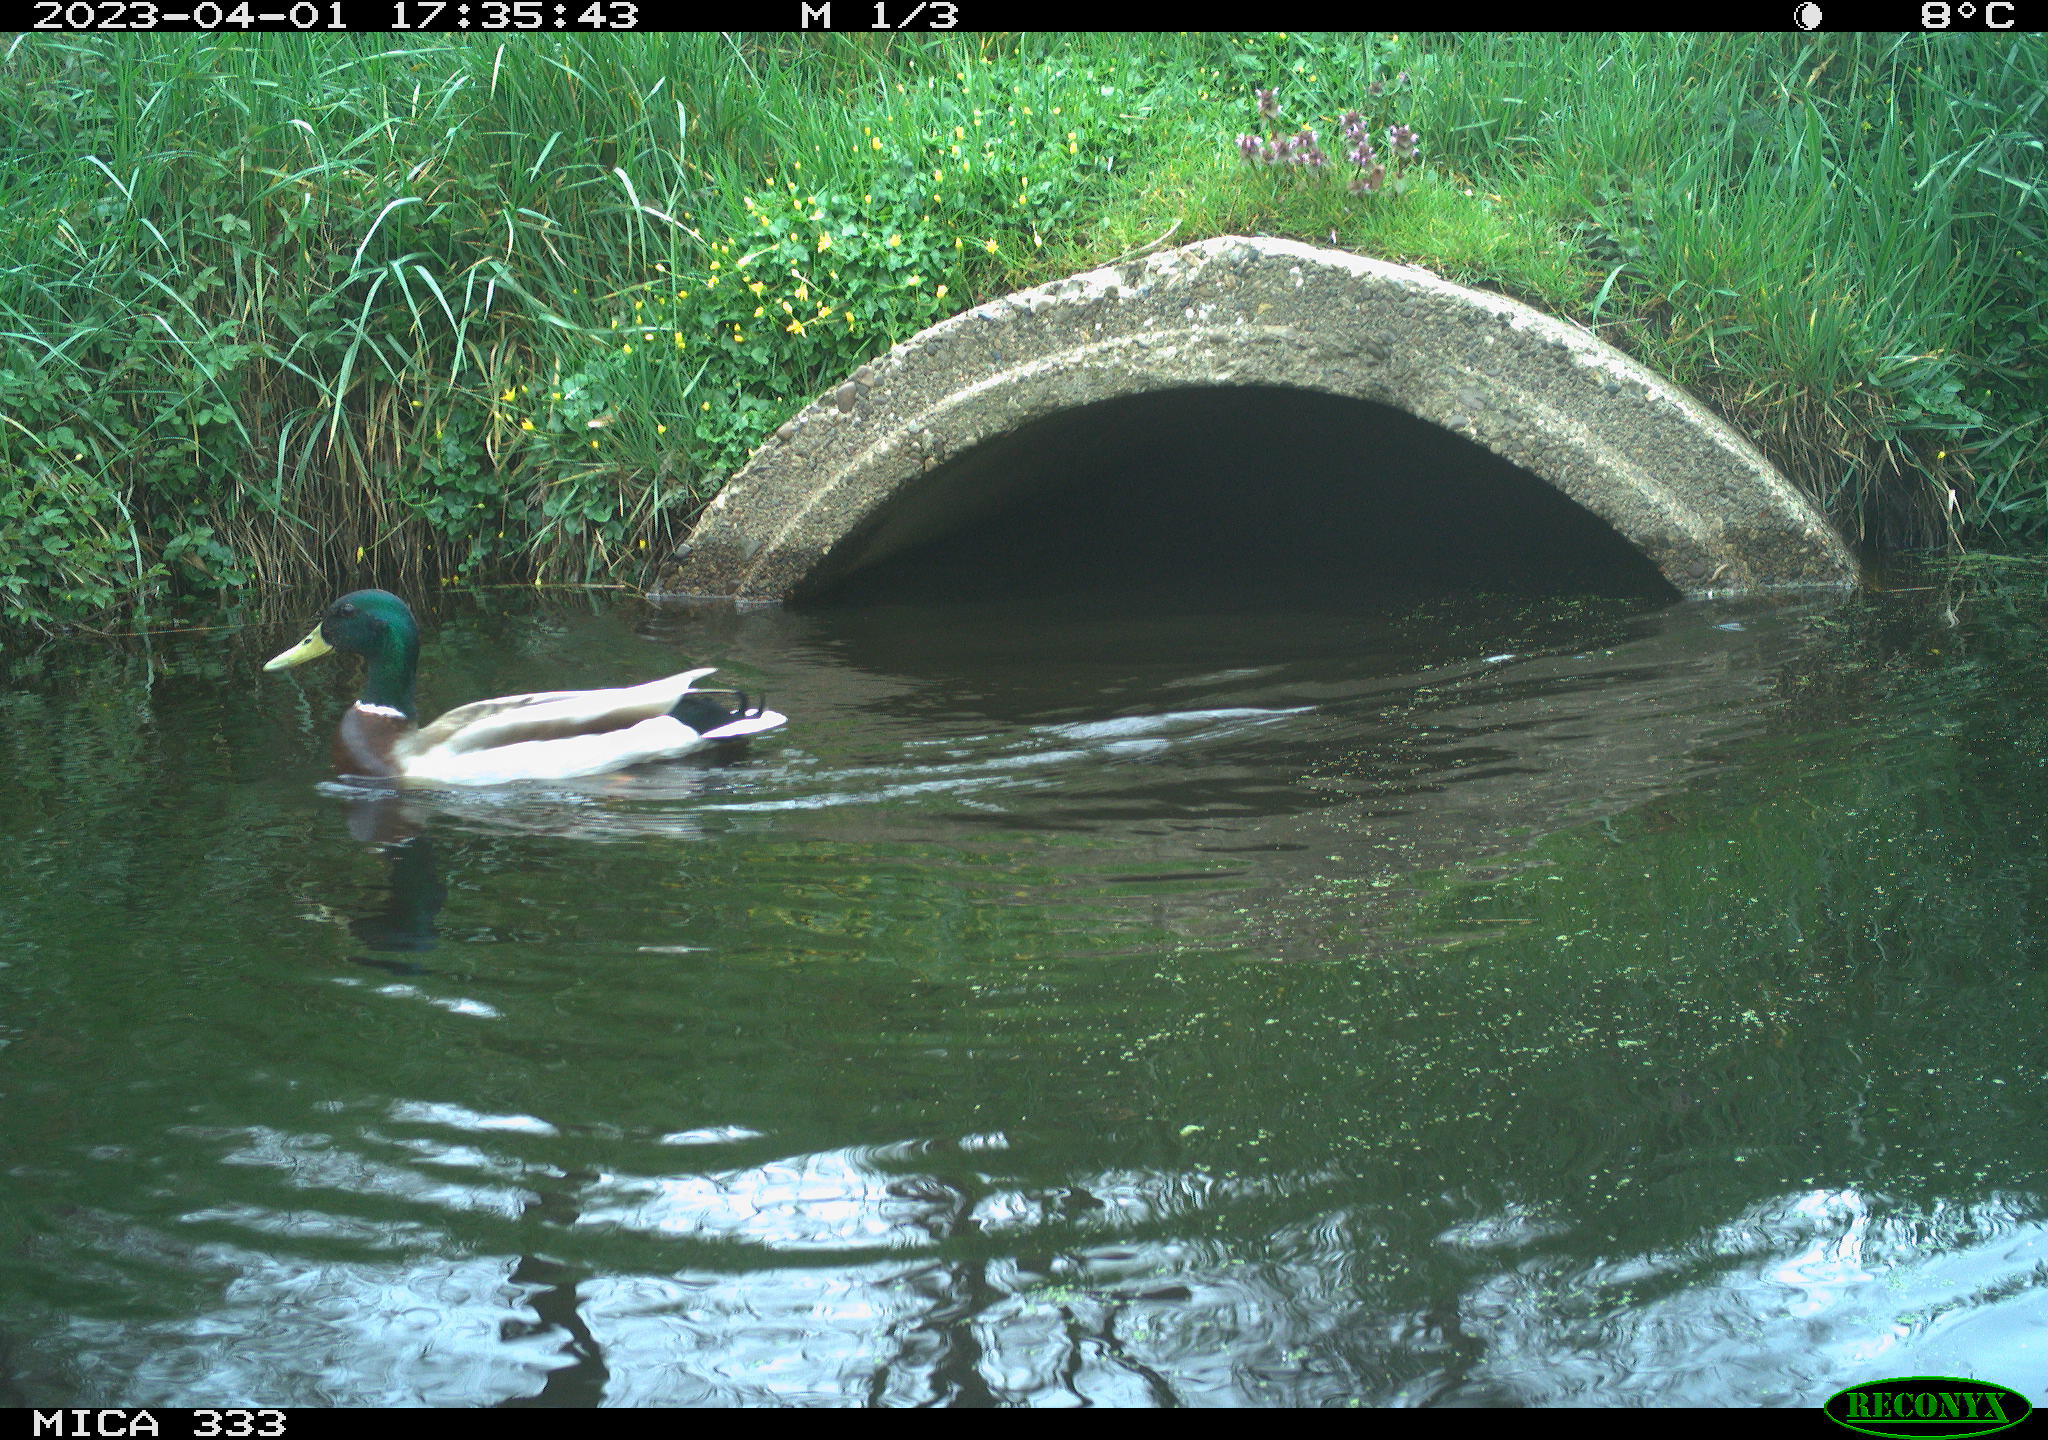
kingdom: Animalia
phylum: Chordata
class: Aves
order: Anseriformes
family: Anatidae
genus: Anas
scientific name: Anas platyrhynchos
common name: Mallard
